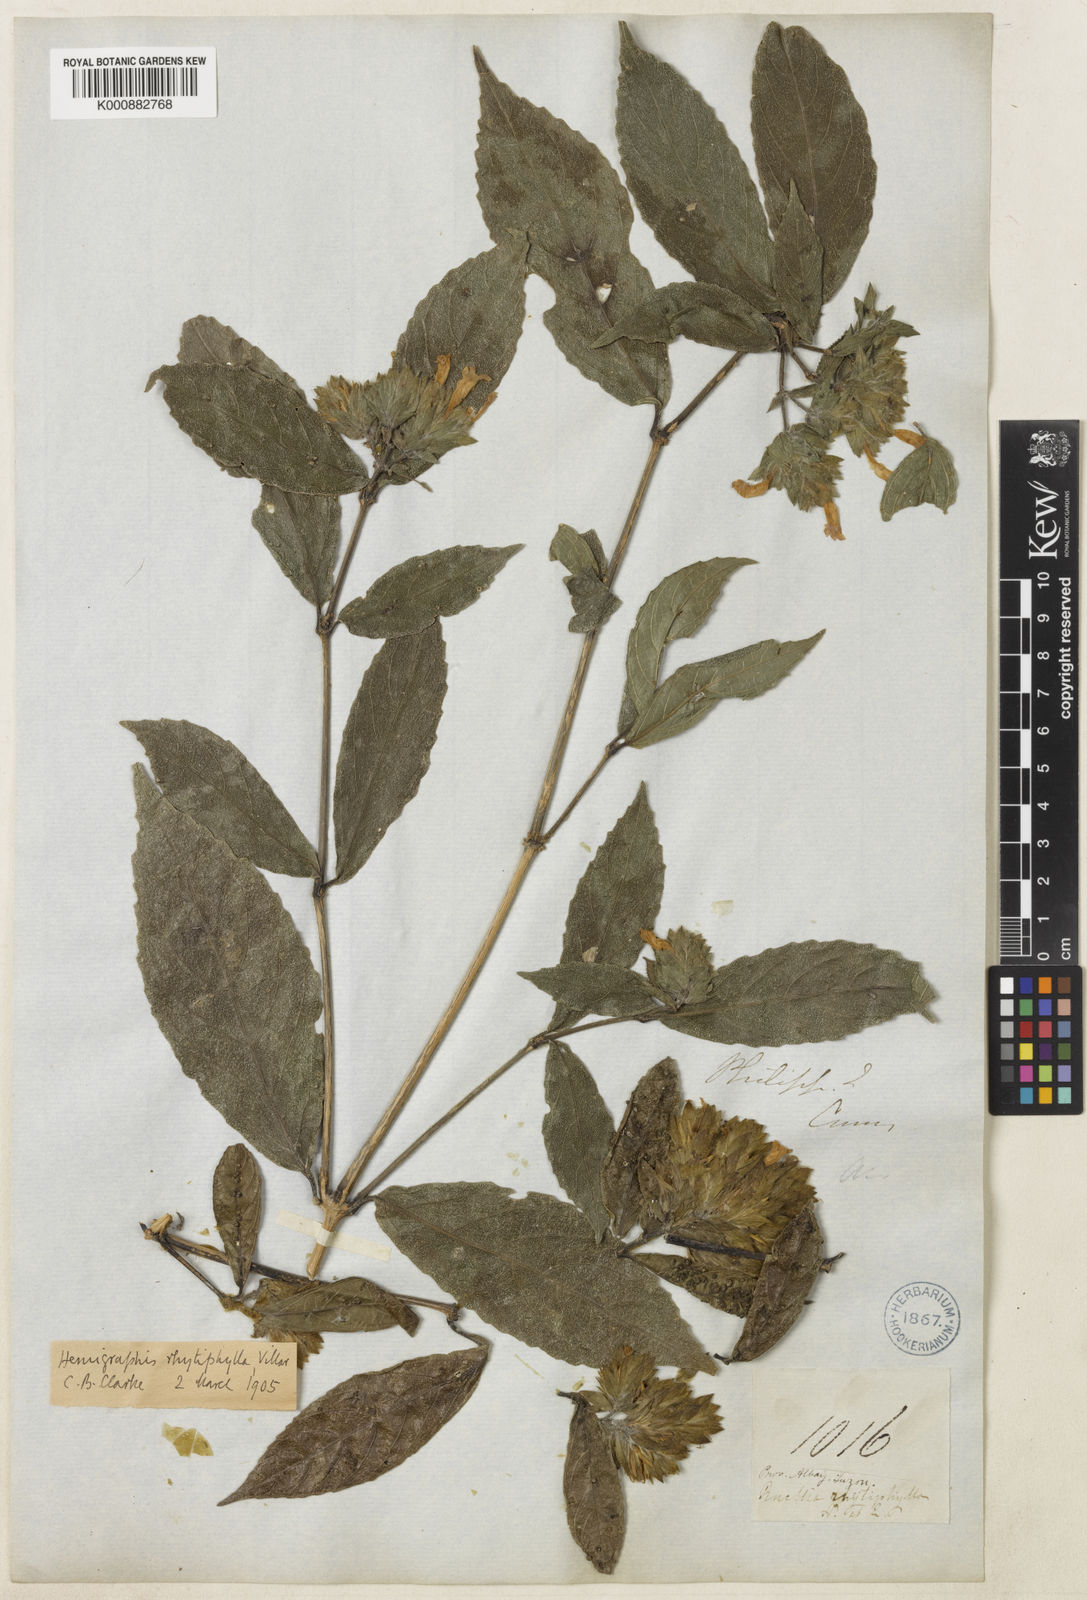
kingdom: Plantae
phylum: Tracheophyta
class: Magnoliopsida
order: Lamiales
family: Acanthaceae
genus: Strobilanthes
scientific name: Strobilanthes rhytiphylla
